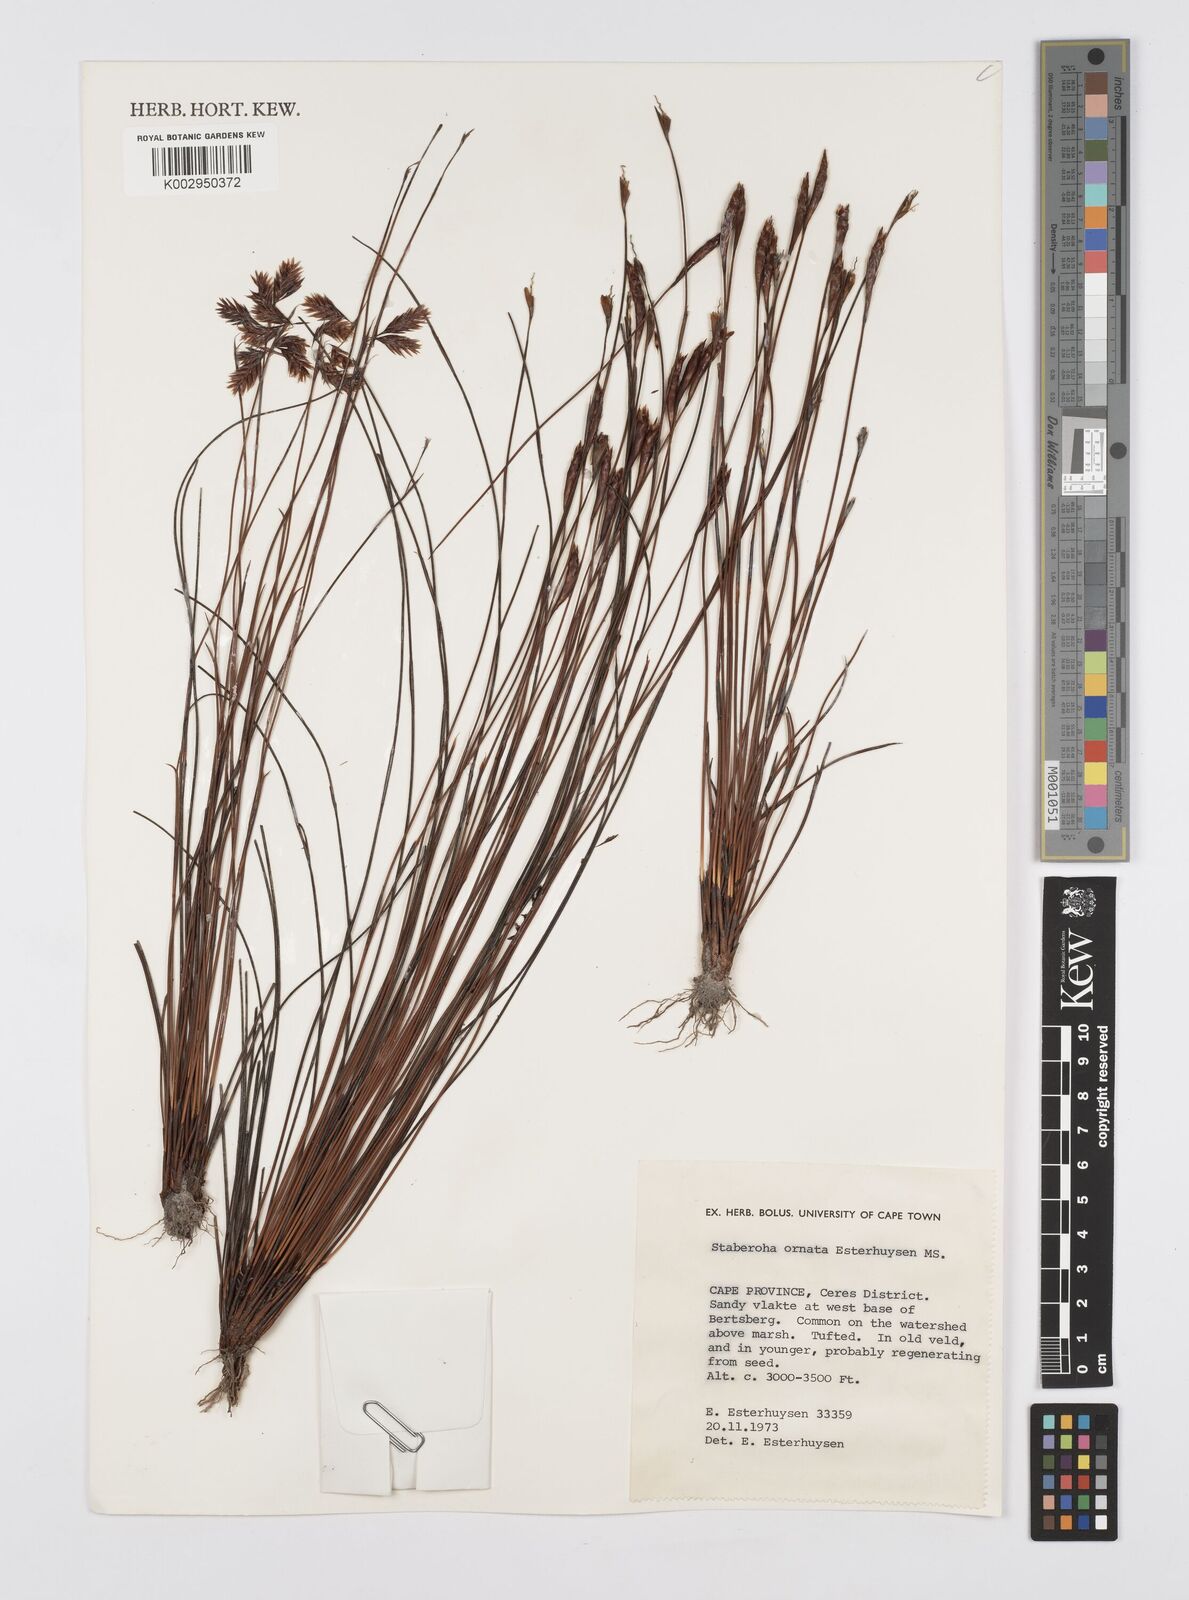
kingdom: Plantae
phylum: Tracheophyta
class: Liliopsida
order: Poales
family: Restionaceae
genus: Staberoha
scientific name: Staberoha ornata
